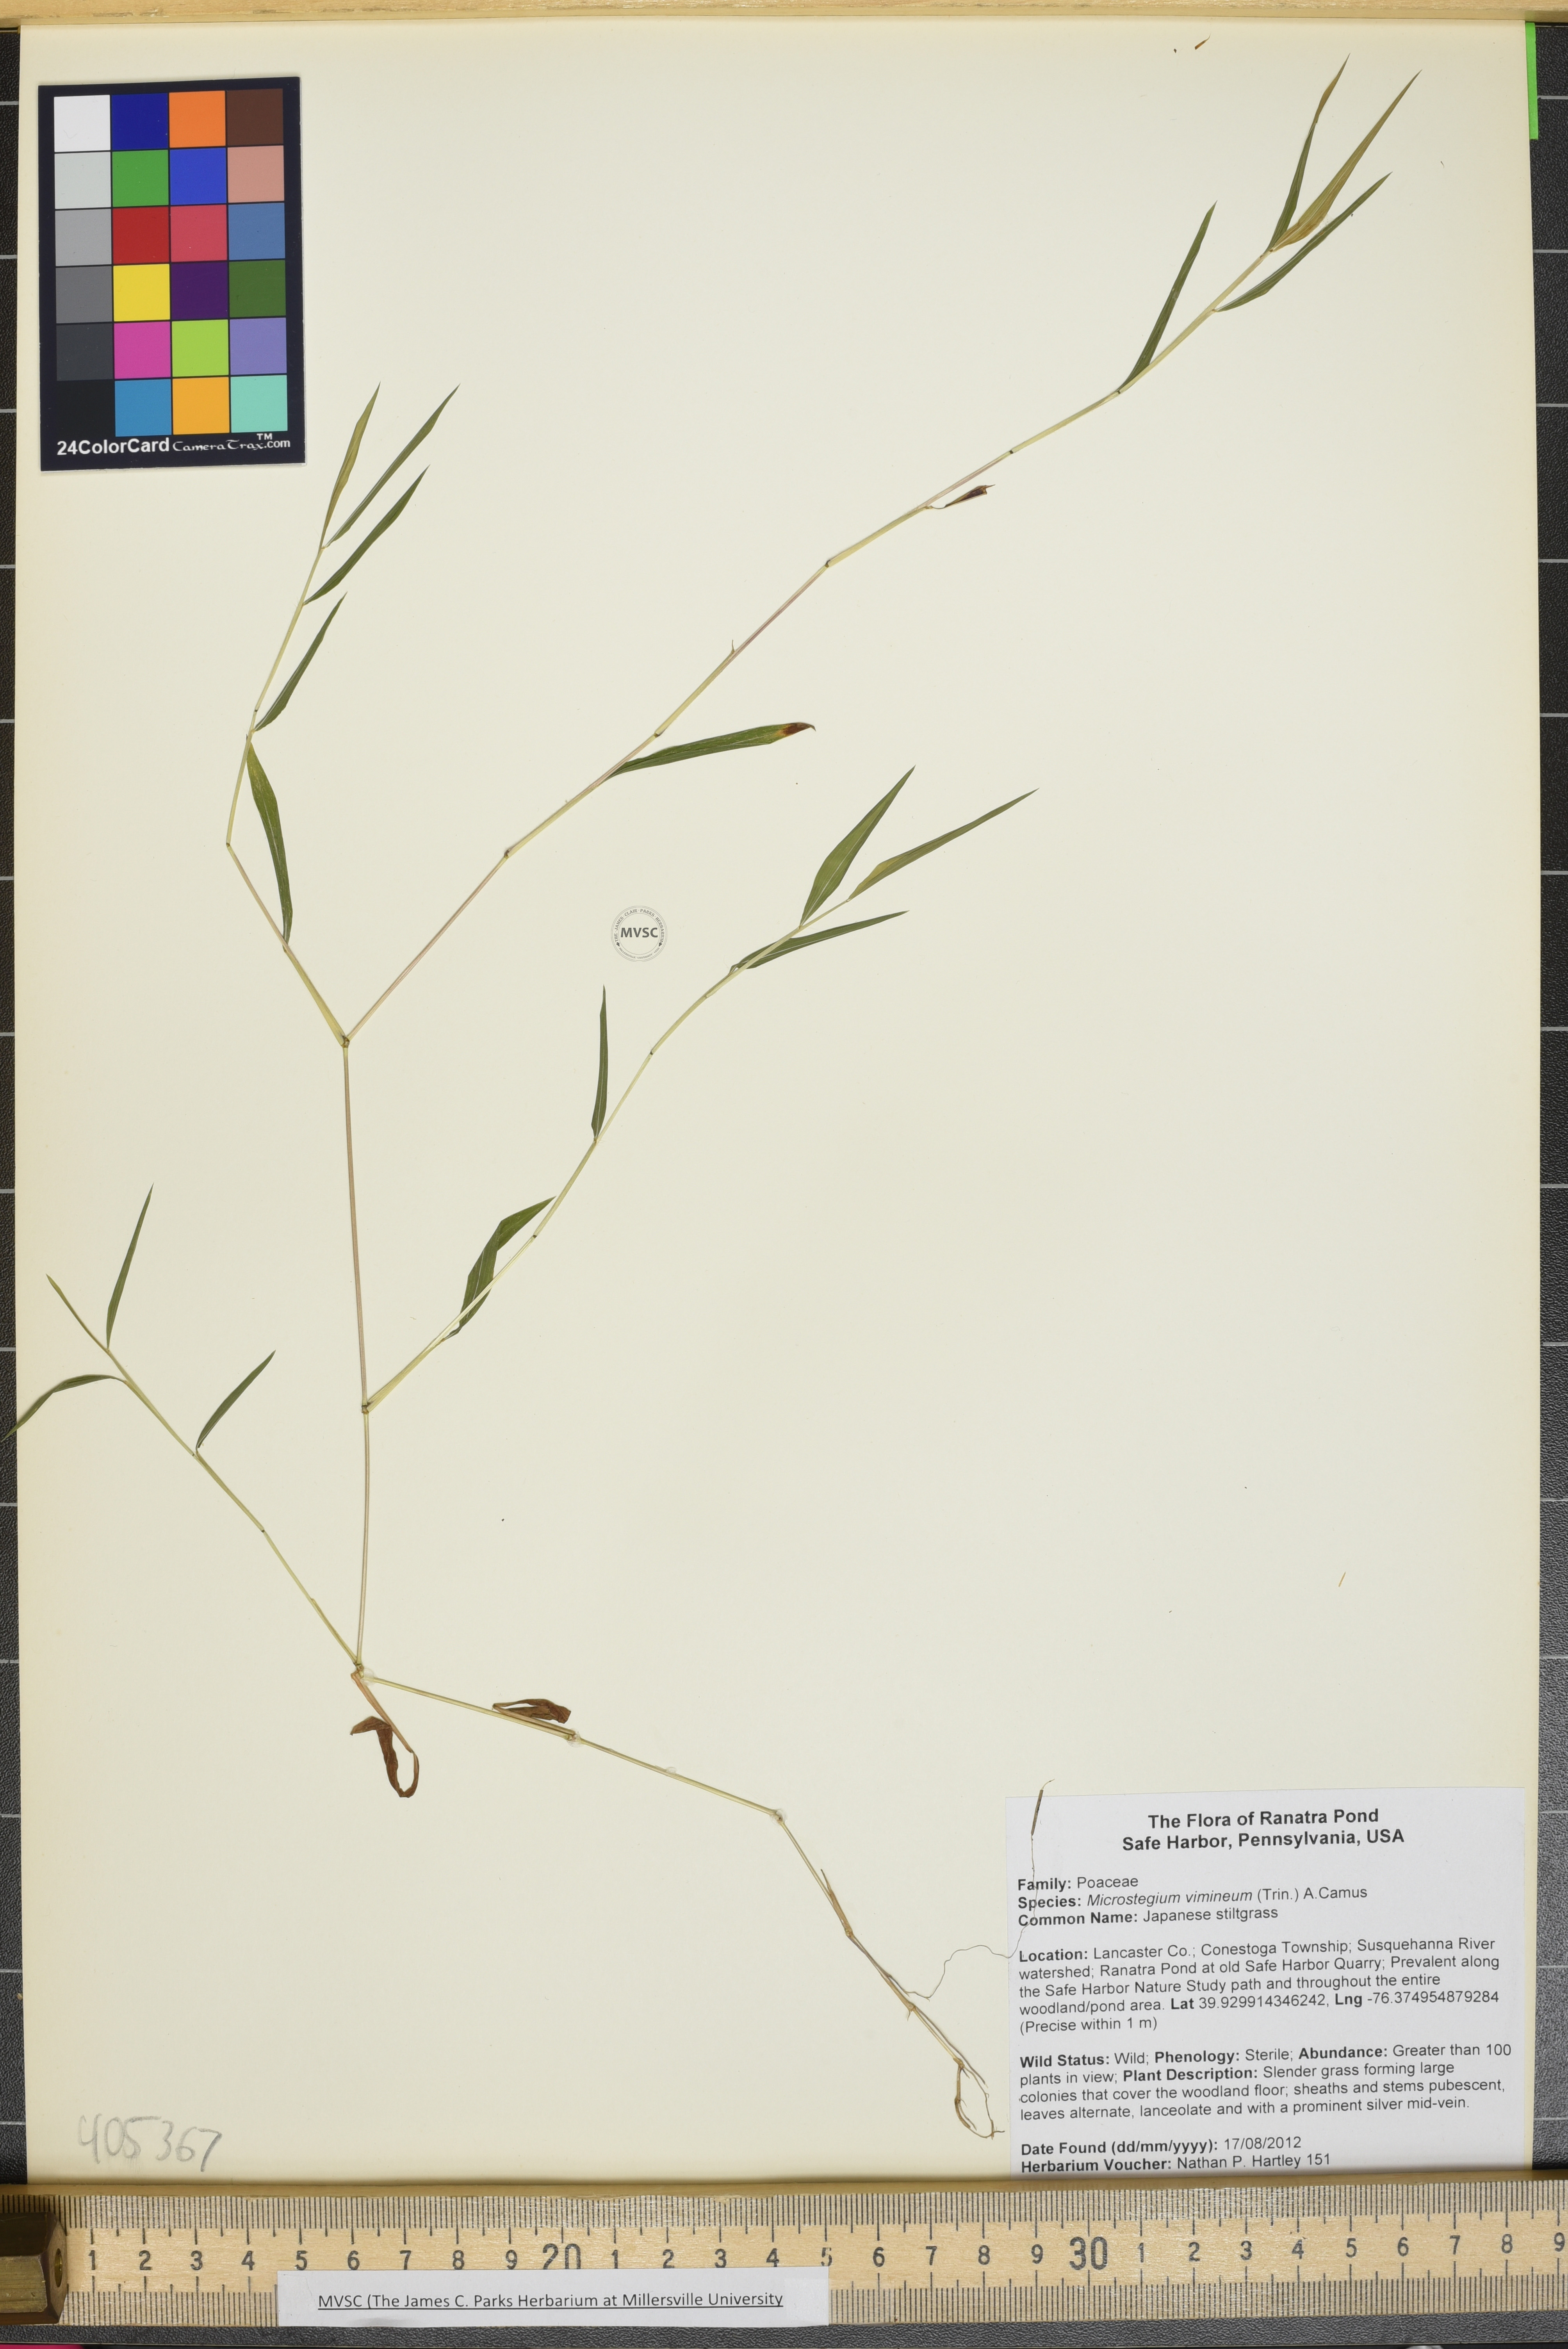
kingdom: Plantae
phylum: Tracheophyta
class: Liliopsida
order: Poales
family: Poaceae
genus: Microstegium
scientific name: Microstegium vimineum
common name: Japanese stiltgrass
